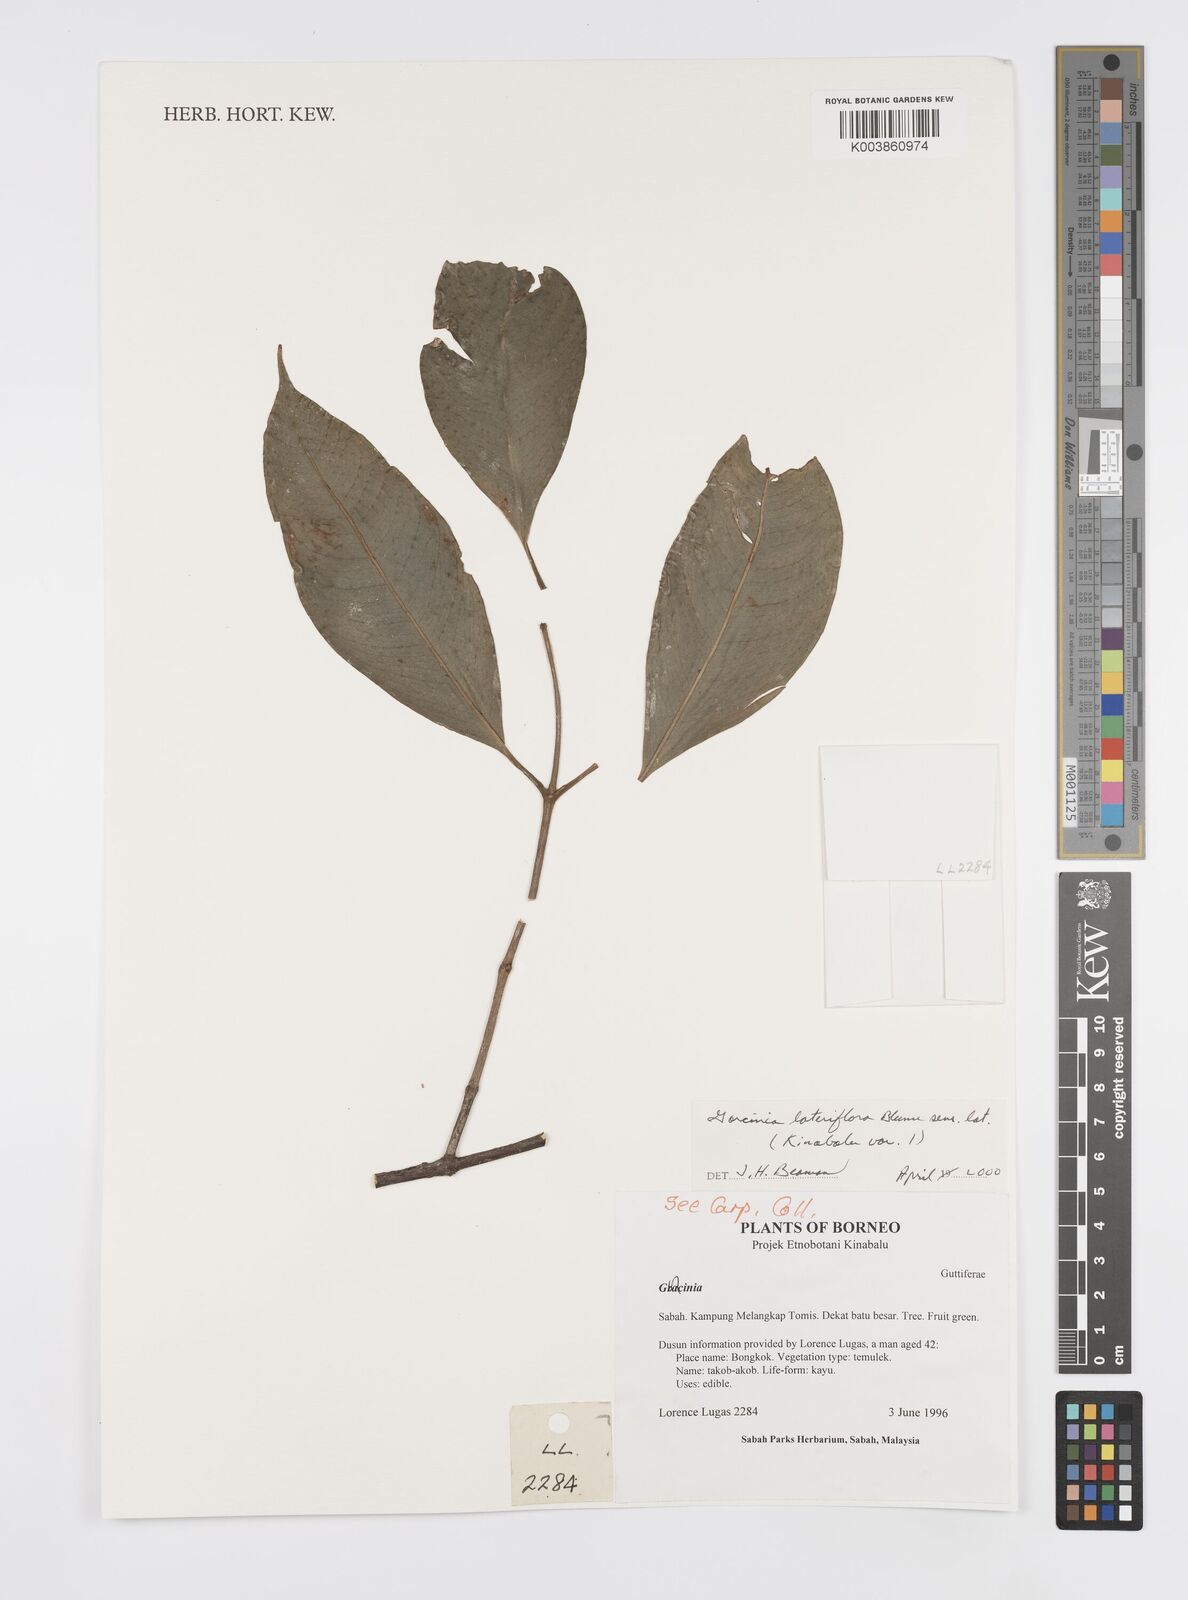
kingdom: Plantae
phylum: Tracheophyta
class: Magnoliopsida
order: Malpighiales
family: Clusiaceae
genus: Garcinia
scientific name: Garcinia lateriflora
